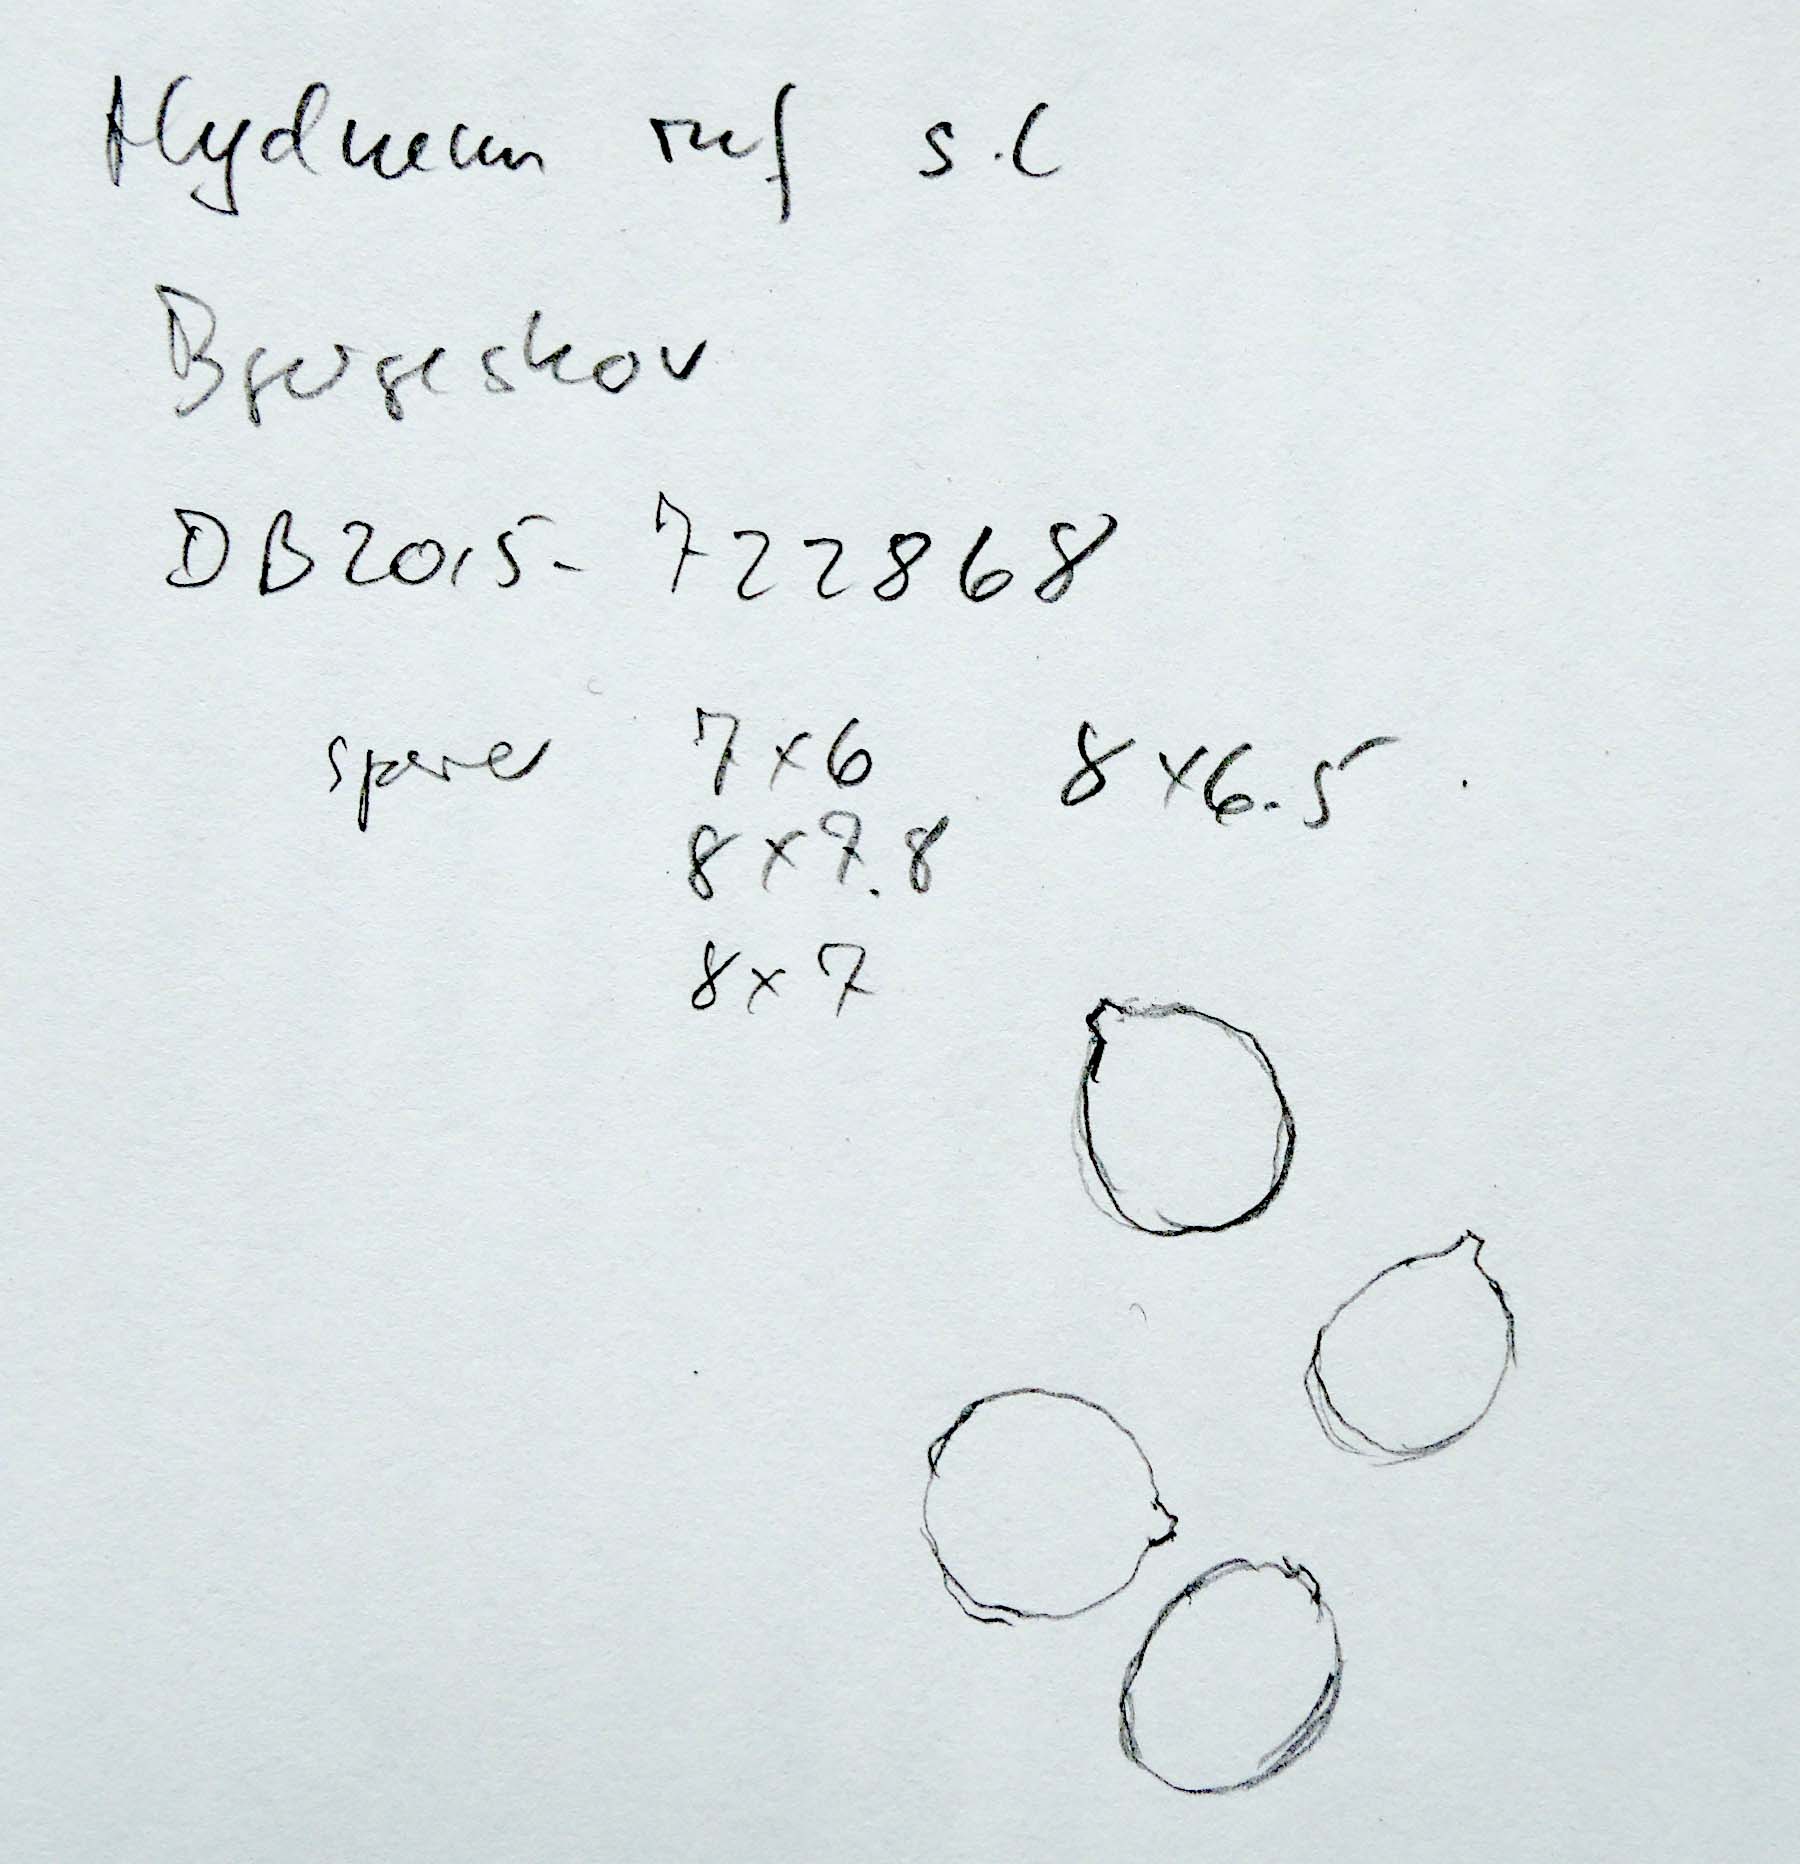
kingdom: Fungi
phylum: Basidiomycota
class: Agaricomycetes
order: Cantharellales
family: Hydnaceae
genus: Hydnum
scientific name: Hydnum rufescens
